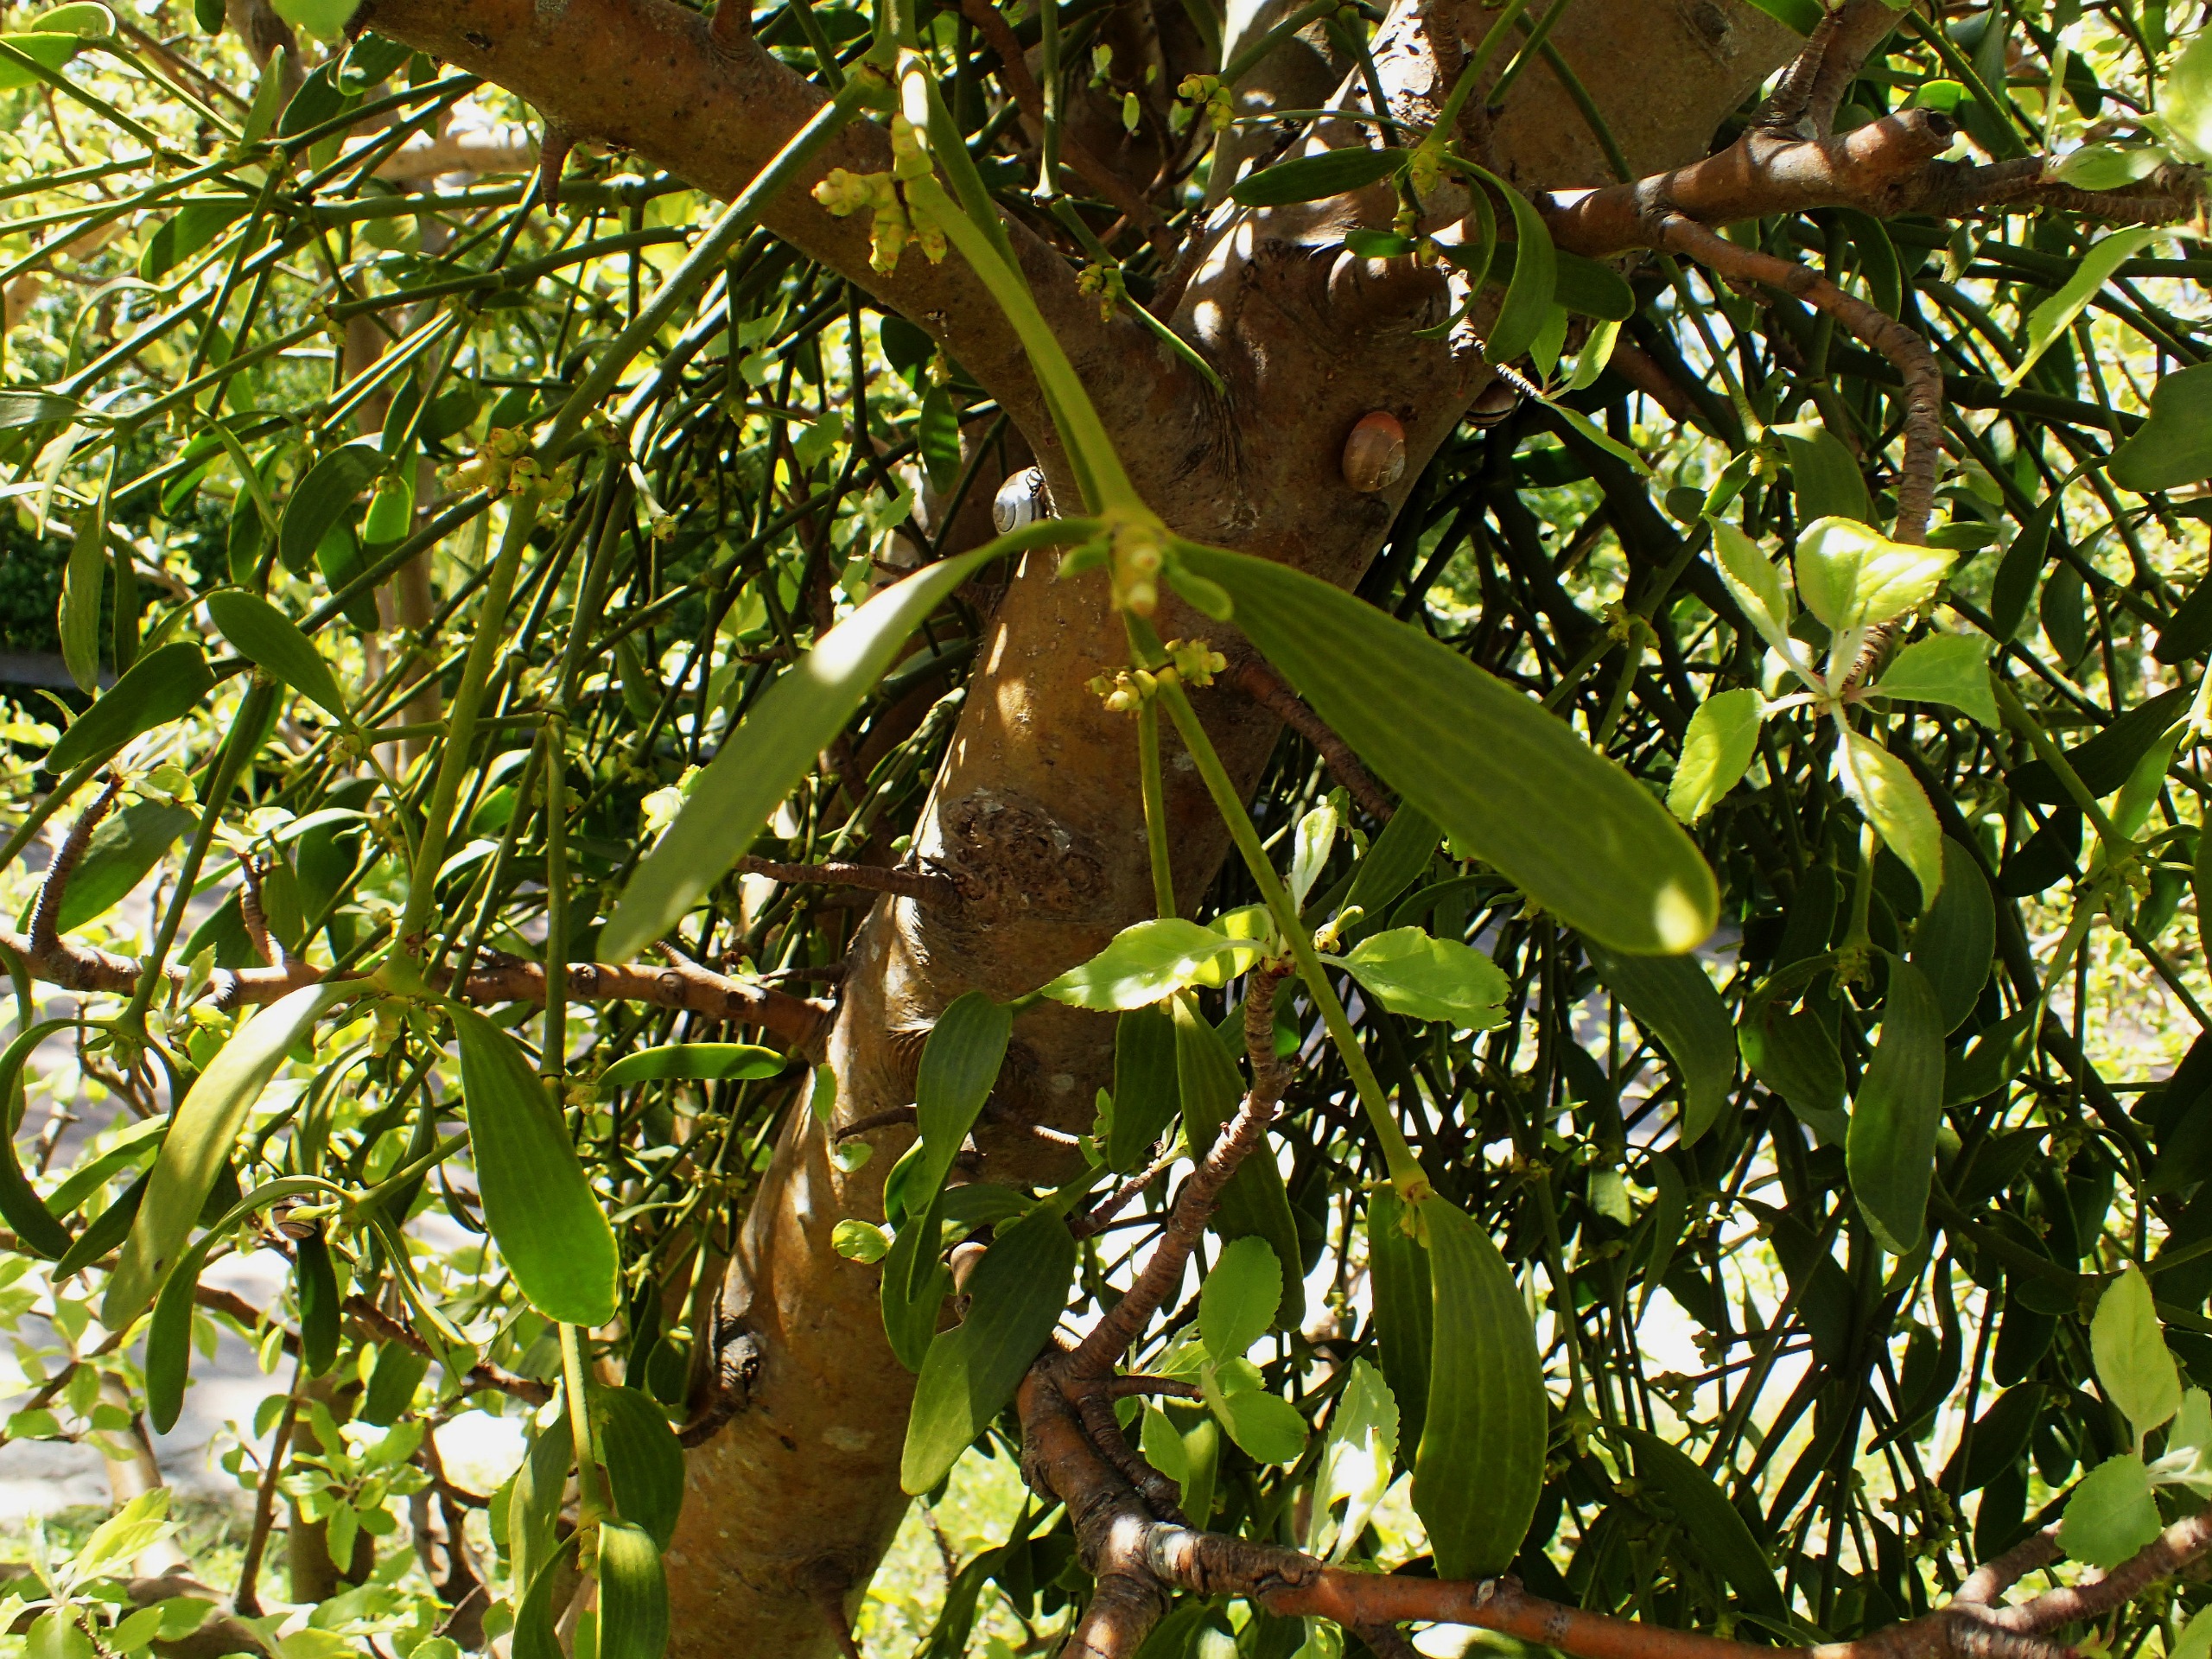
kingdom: Plantae
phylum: Tracheophyta
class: Magnoliopsida
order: Santalales
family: Viscaceae
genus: Viscum
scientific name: Viscum album
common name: Mistelten
